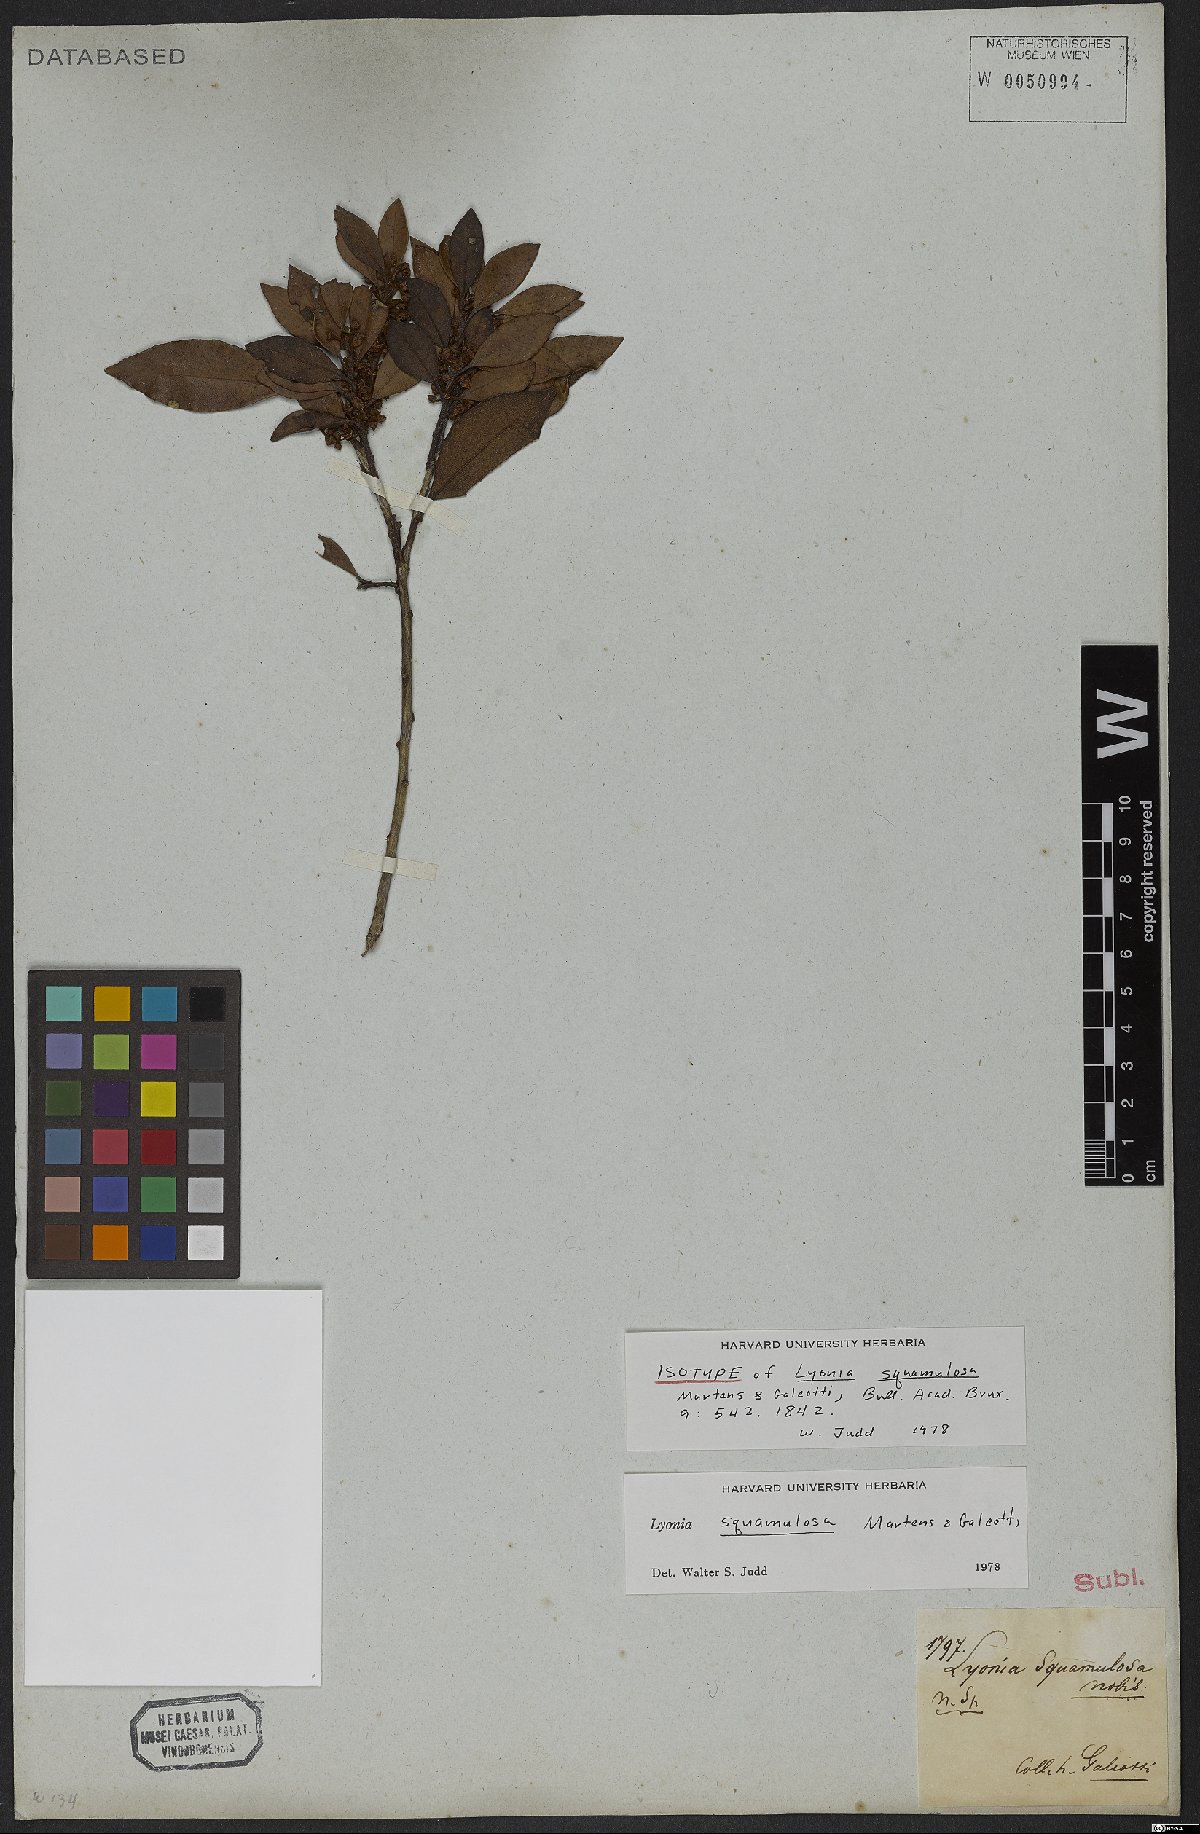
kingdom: Plantae
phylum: Tracheophyta
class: Magnoliopsida
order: Ericales
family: Ericaceae
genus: Lyonia
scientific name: Lyonia squamulosa
